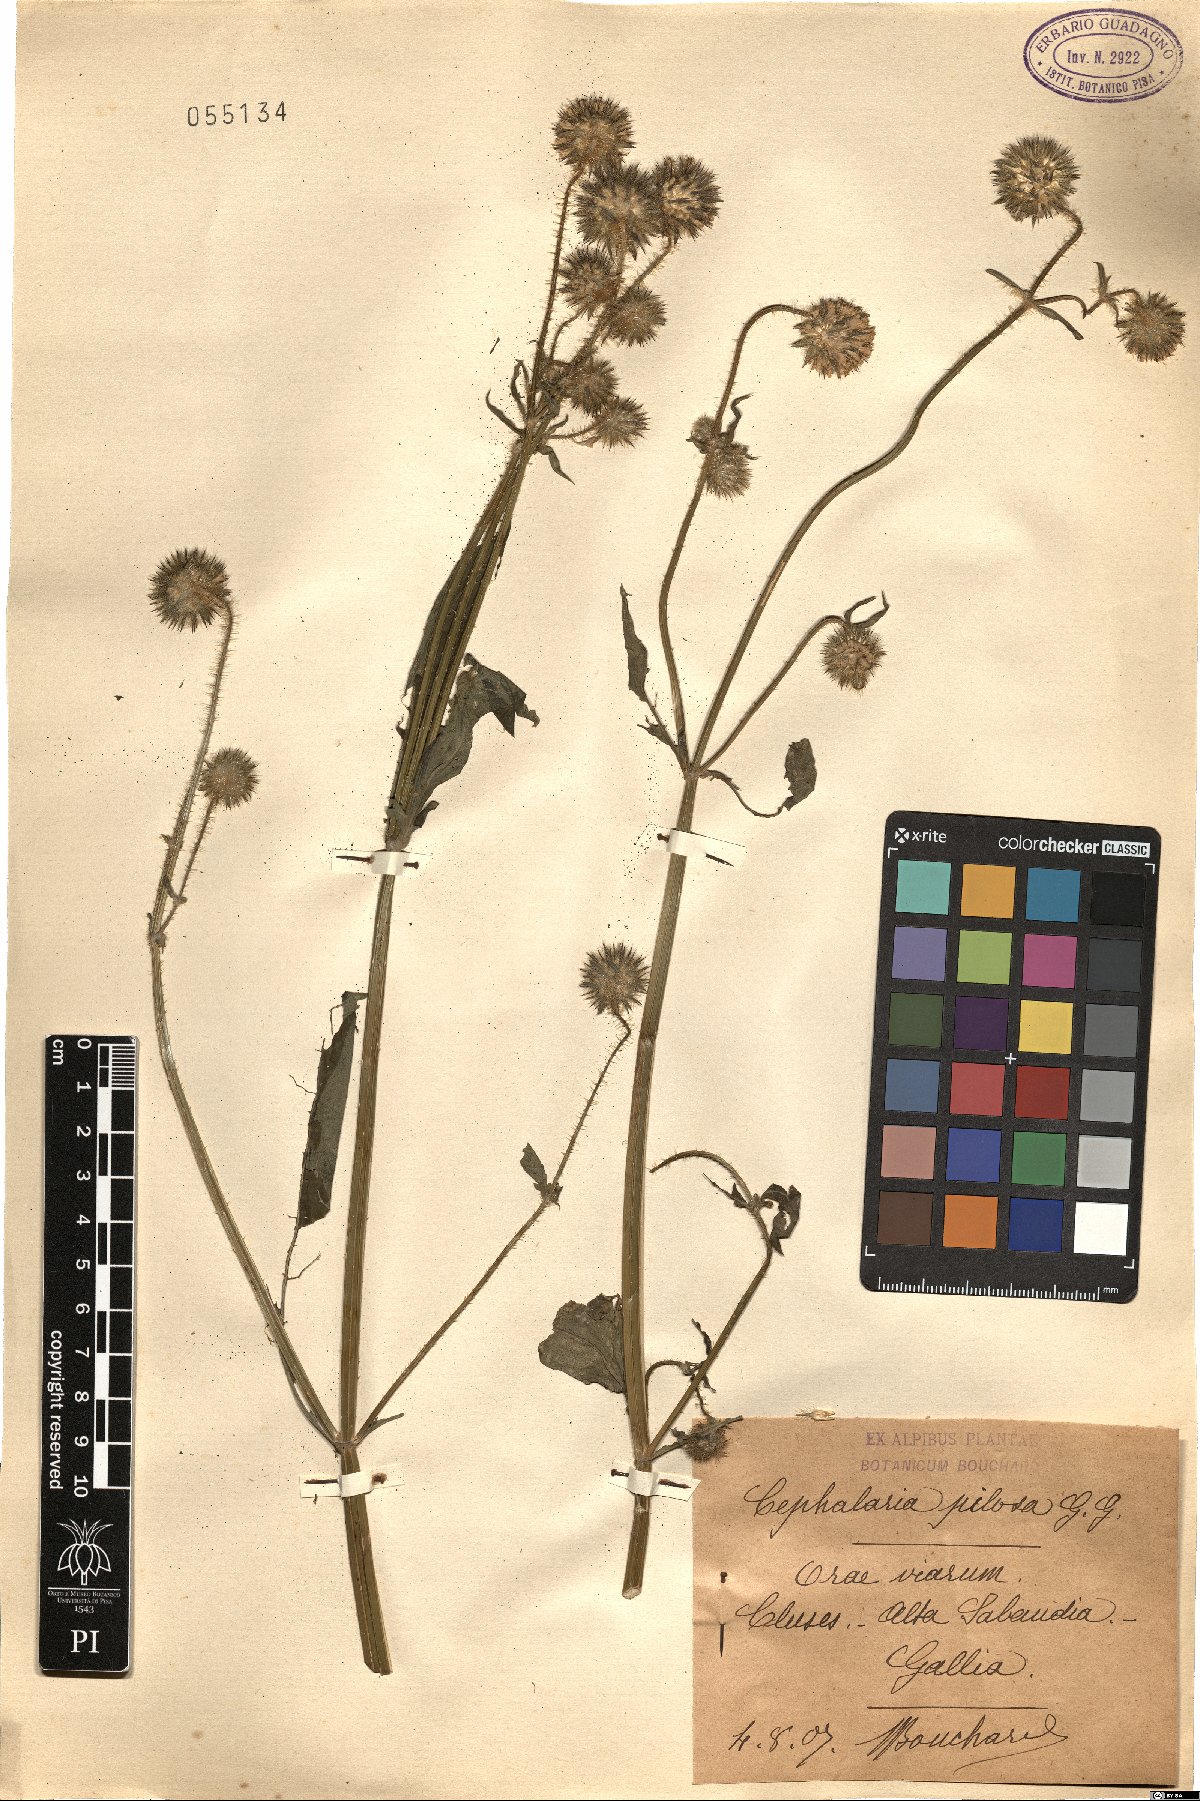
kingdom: Plantae
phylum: Tracheophyta
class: Magnoliopsida
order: Dipsacales
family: Caprifoliaceae
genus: Dipsacus
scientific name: Dipsacus pilosus
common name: Small teasel
